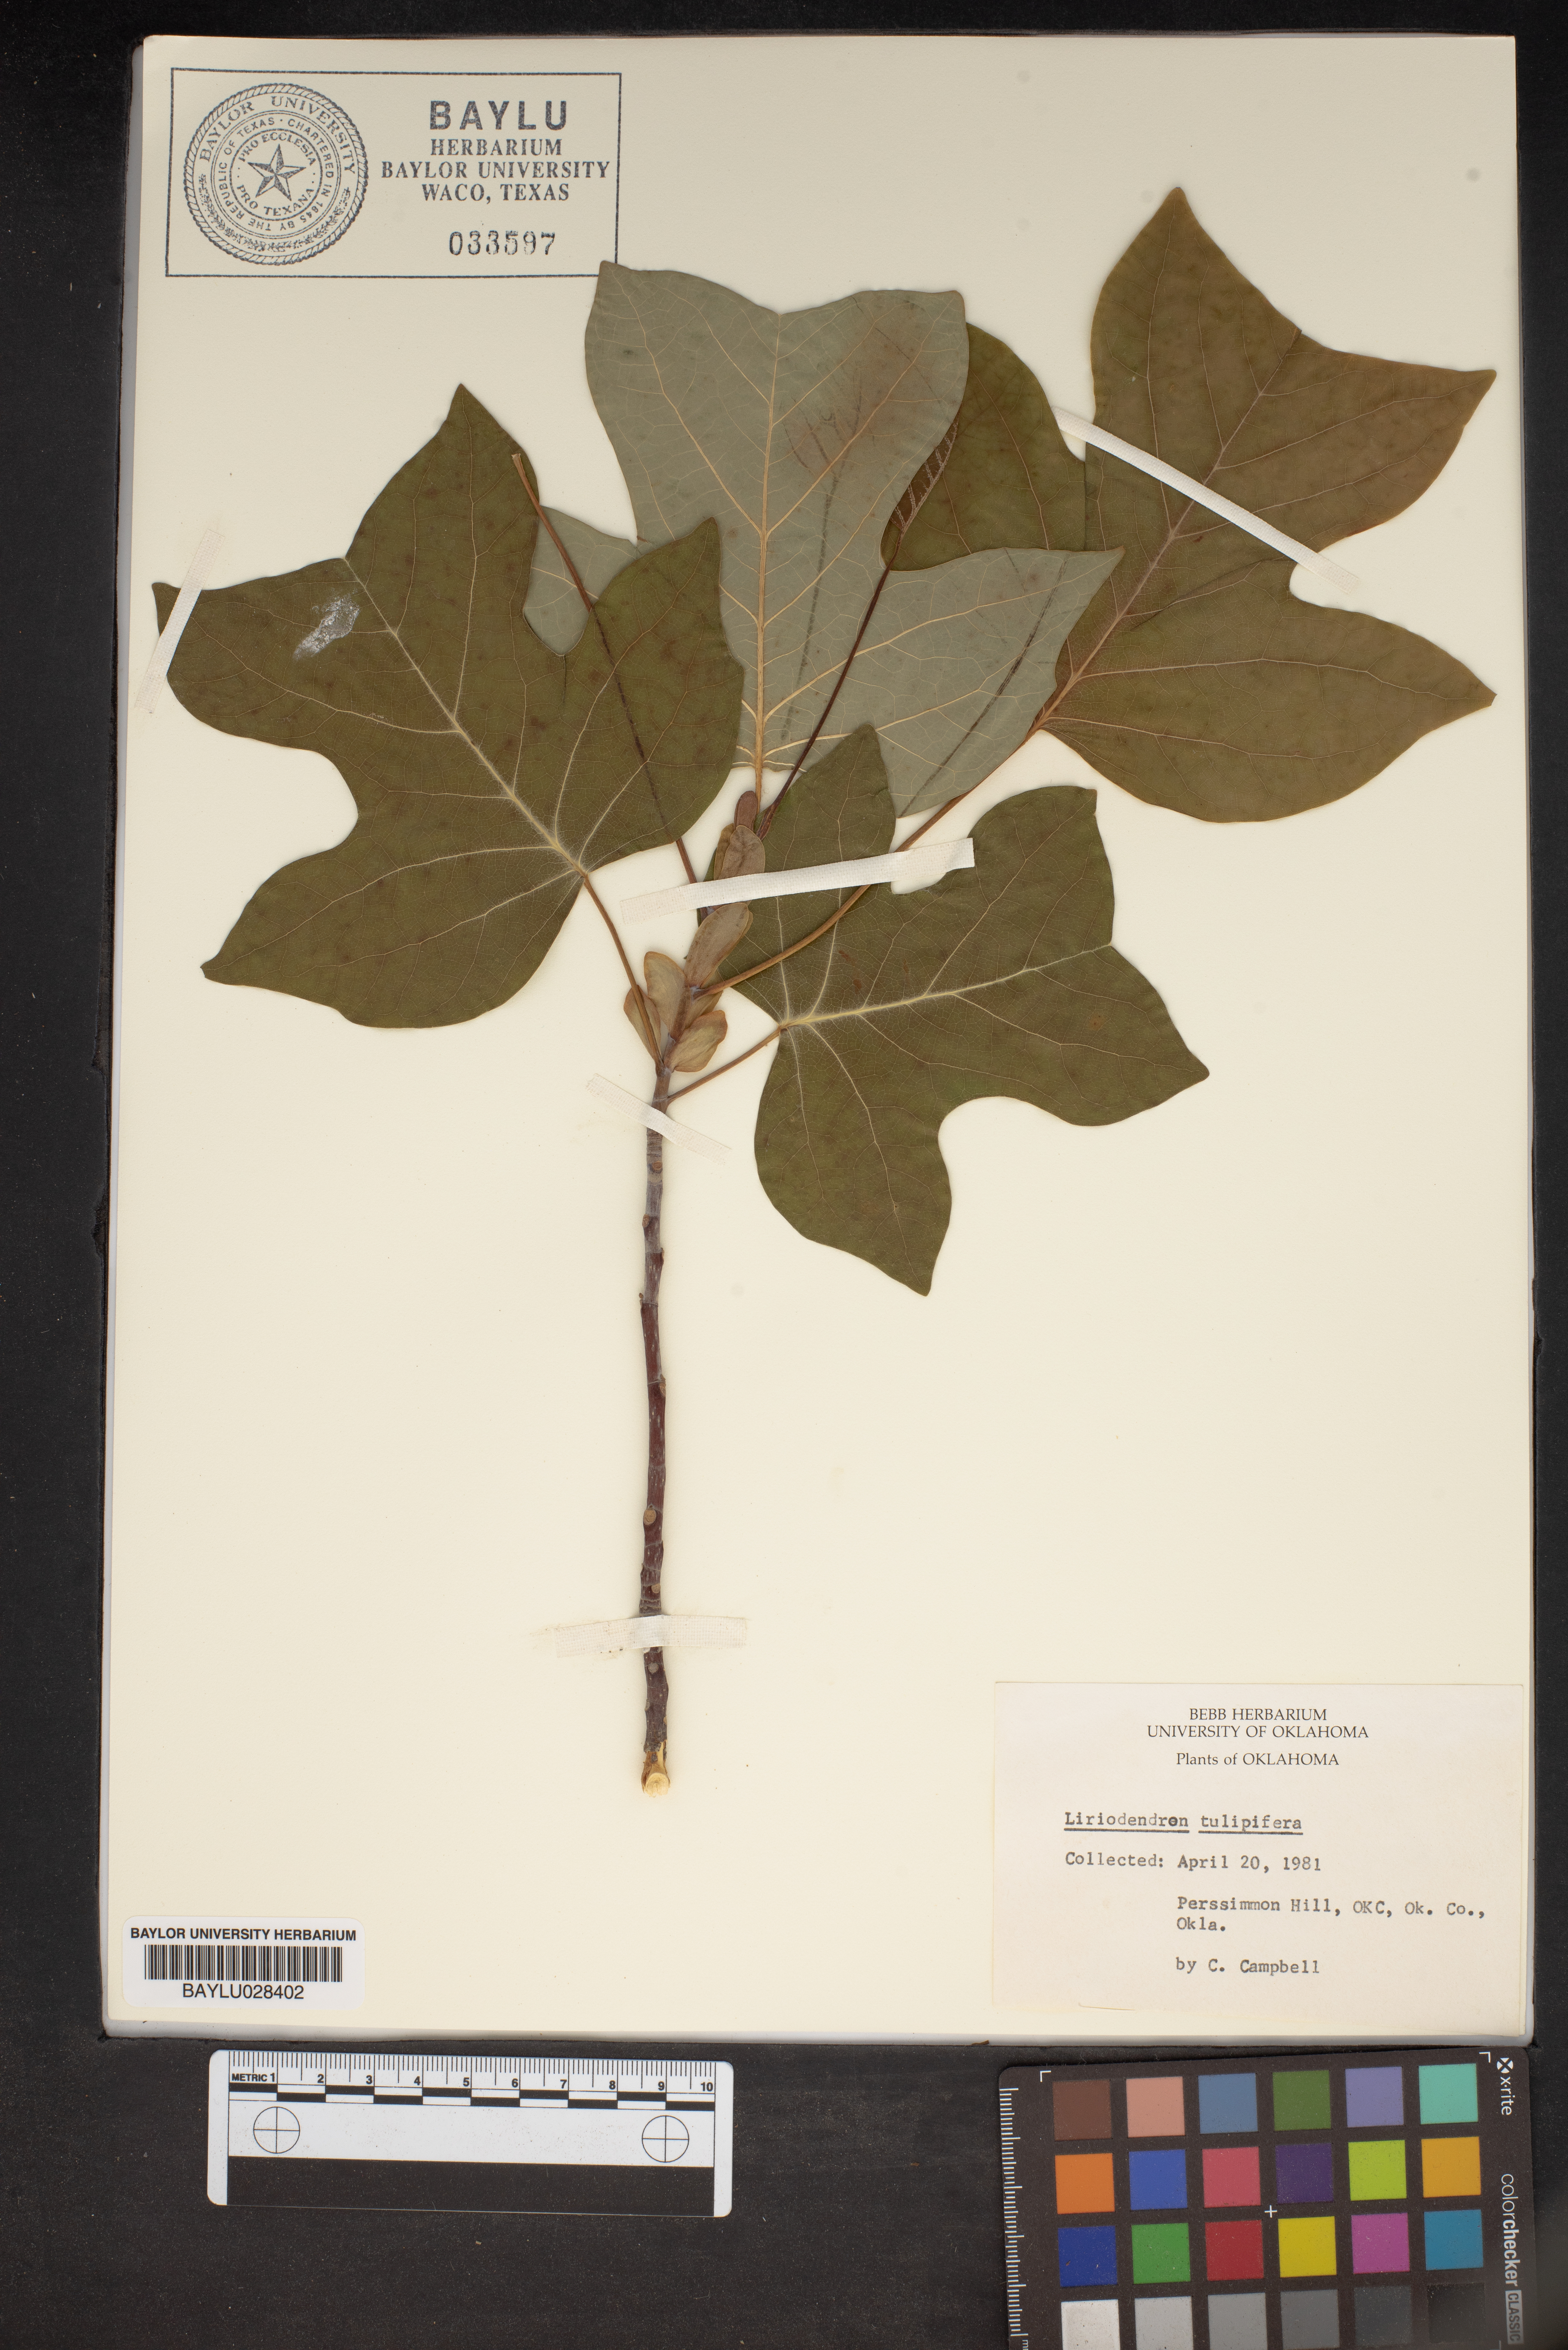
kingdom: Plantae
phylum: Tracheophyta
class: Magnoliopsida
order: Magnoliales
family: Magnoliaceae
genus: Liriodendron
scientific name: Liriodendron tulipifera
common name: Tulip tree
